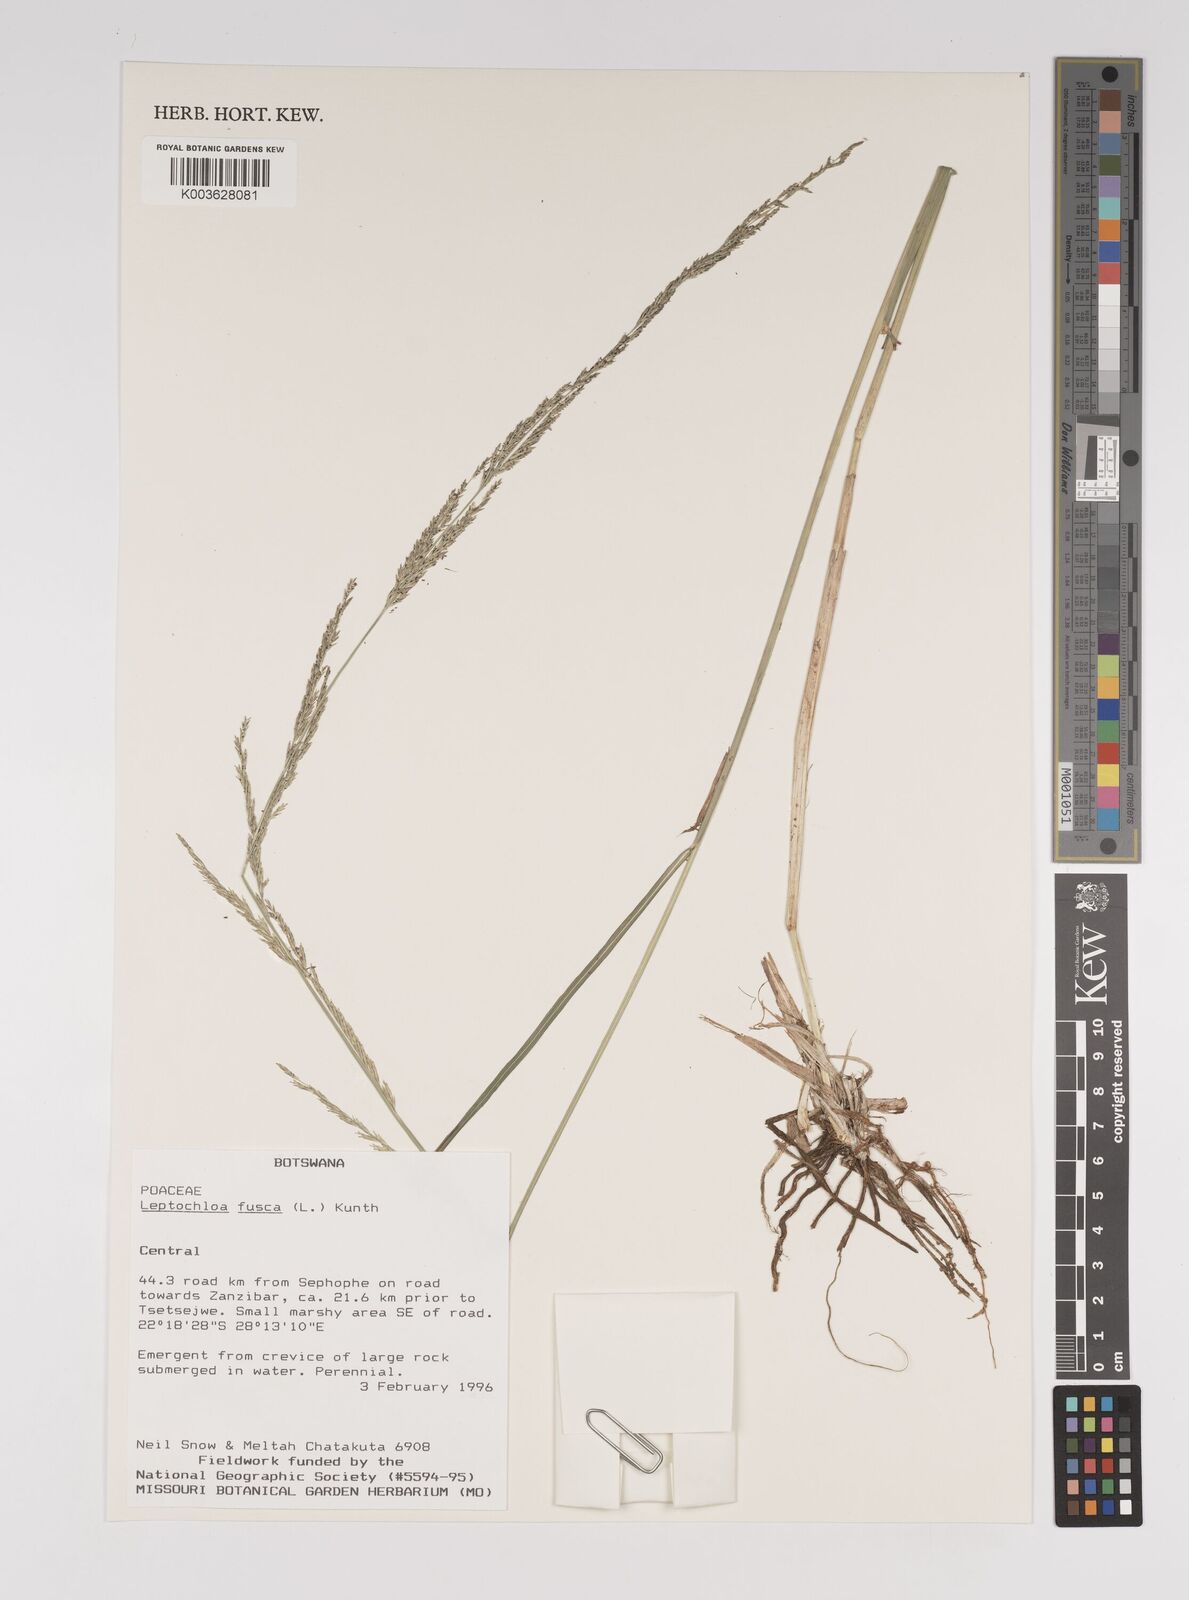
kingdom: Plantae
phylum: Tracheophyta
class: Liliopsida
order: Poales
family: Poaceae
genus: Diplachne
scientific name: Diplachne fusca
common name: Brown beetle grass
